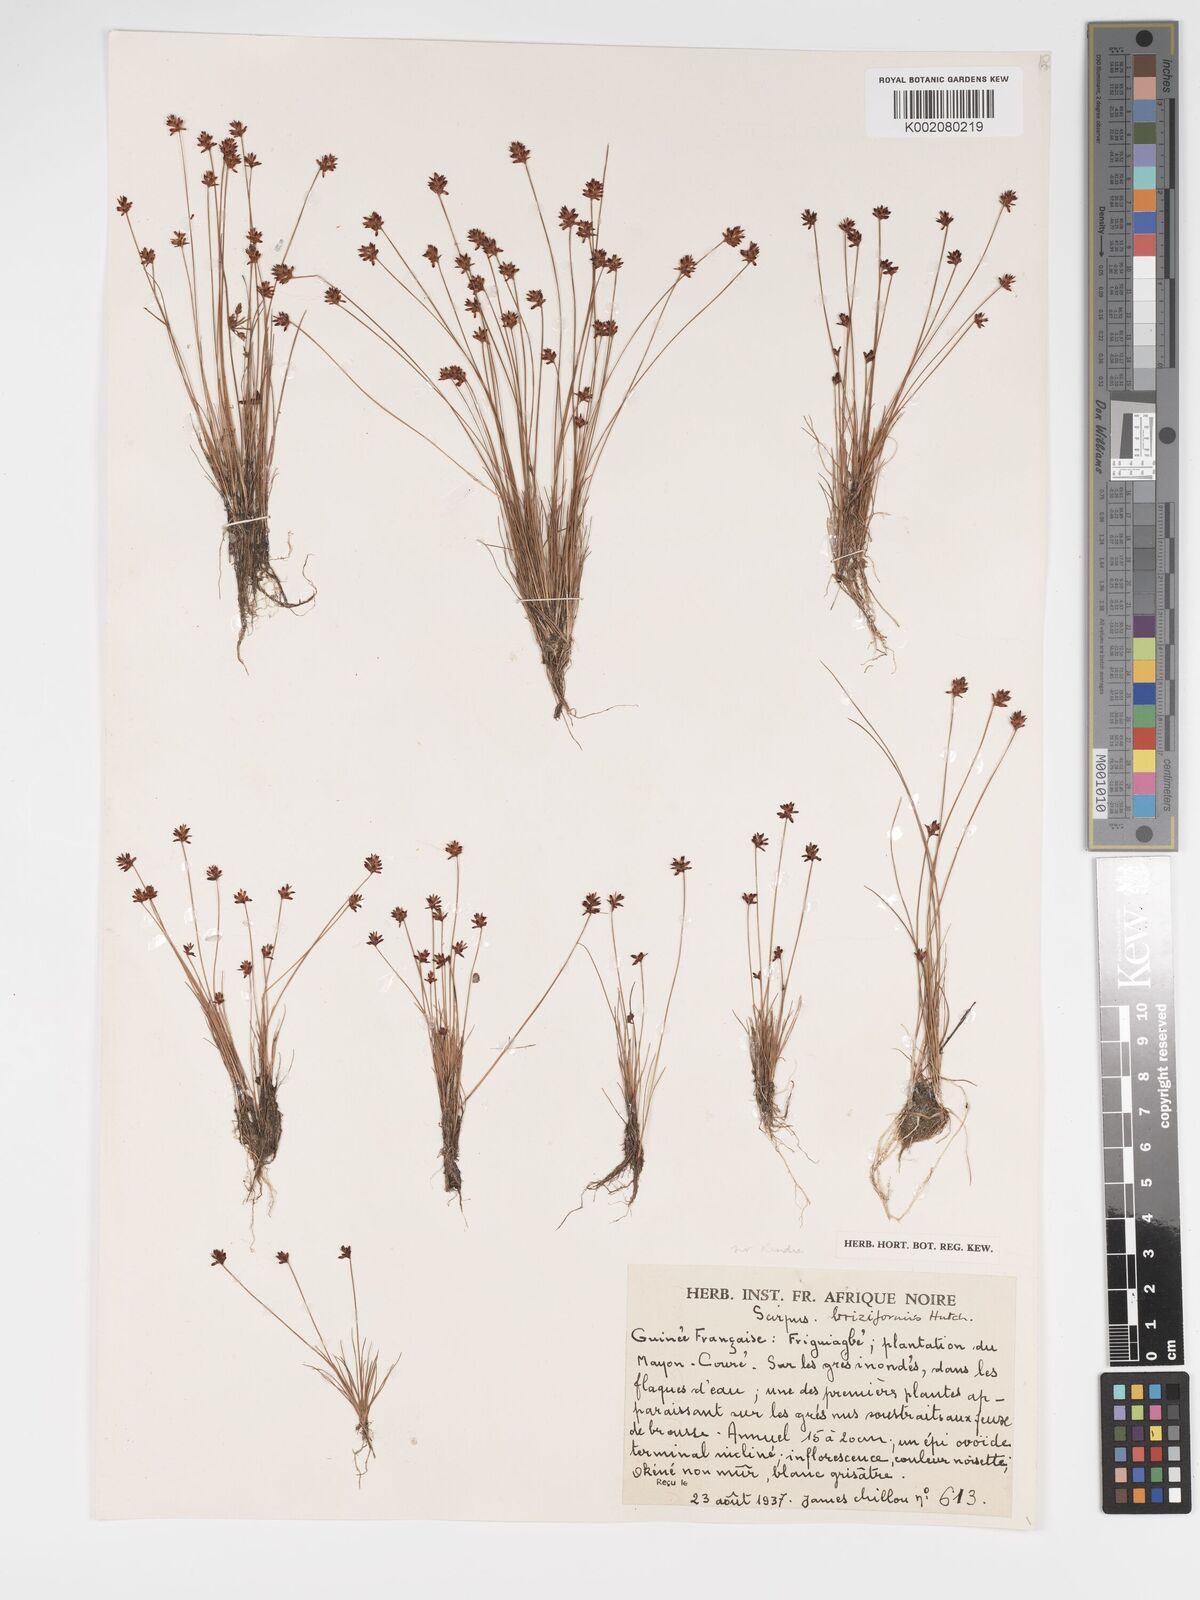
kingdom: Plantae
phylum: Tracheophyta
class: Liliopsida
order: Poales
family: Cyperaceae
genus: Bulbostylis
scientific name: Bulbostylis briziformis
